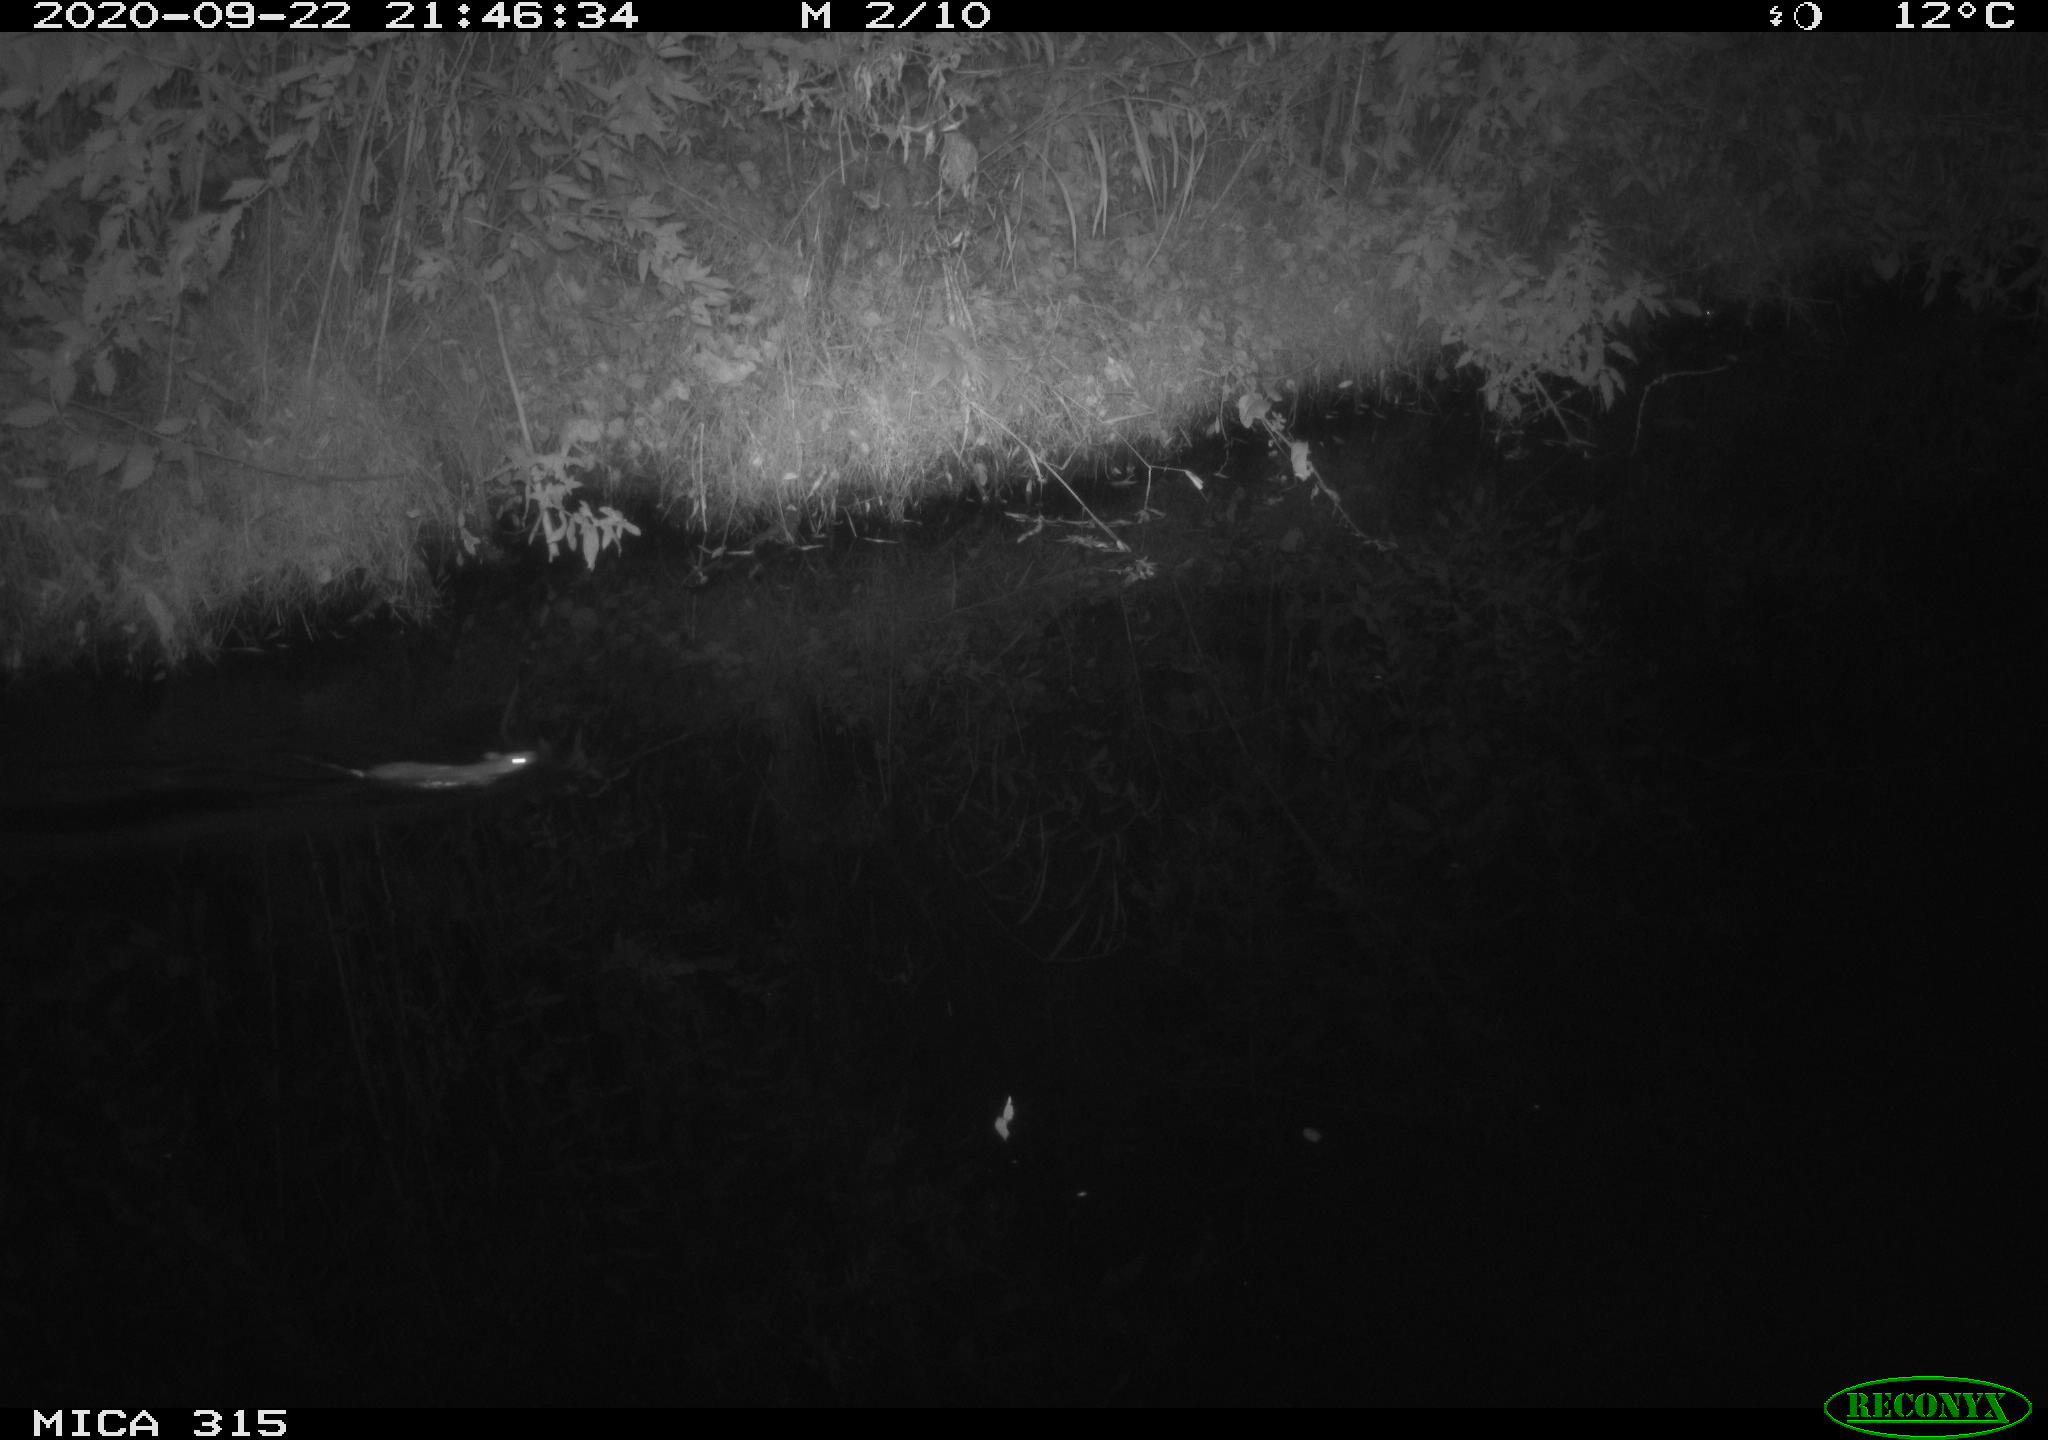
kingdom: Animalia
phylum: Chordata
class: Mammalia
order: Rodentia
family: Muridae
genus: Rattus
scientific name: Rattus norvegicus
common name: Brown rat
